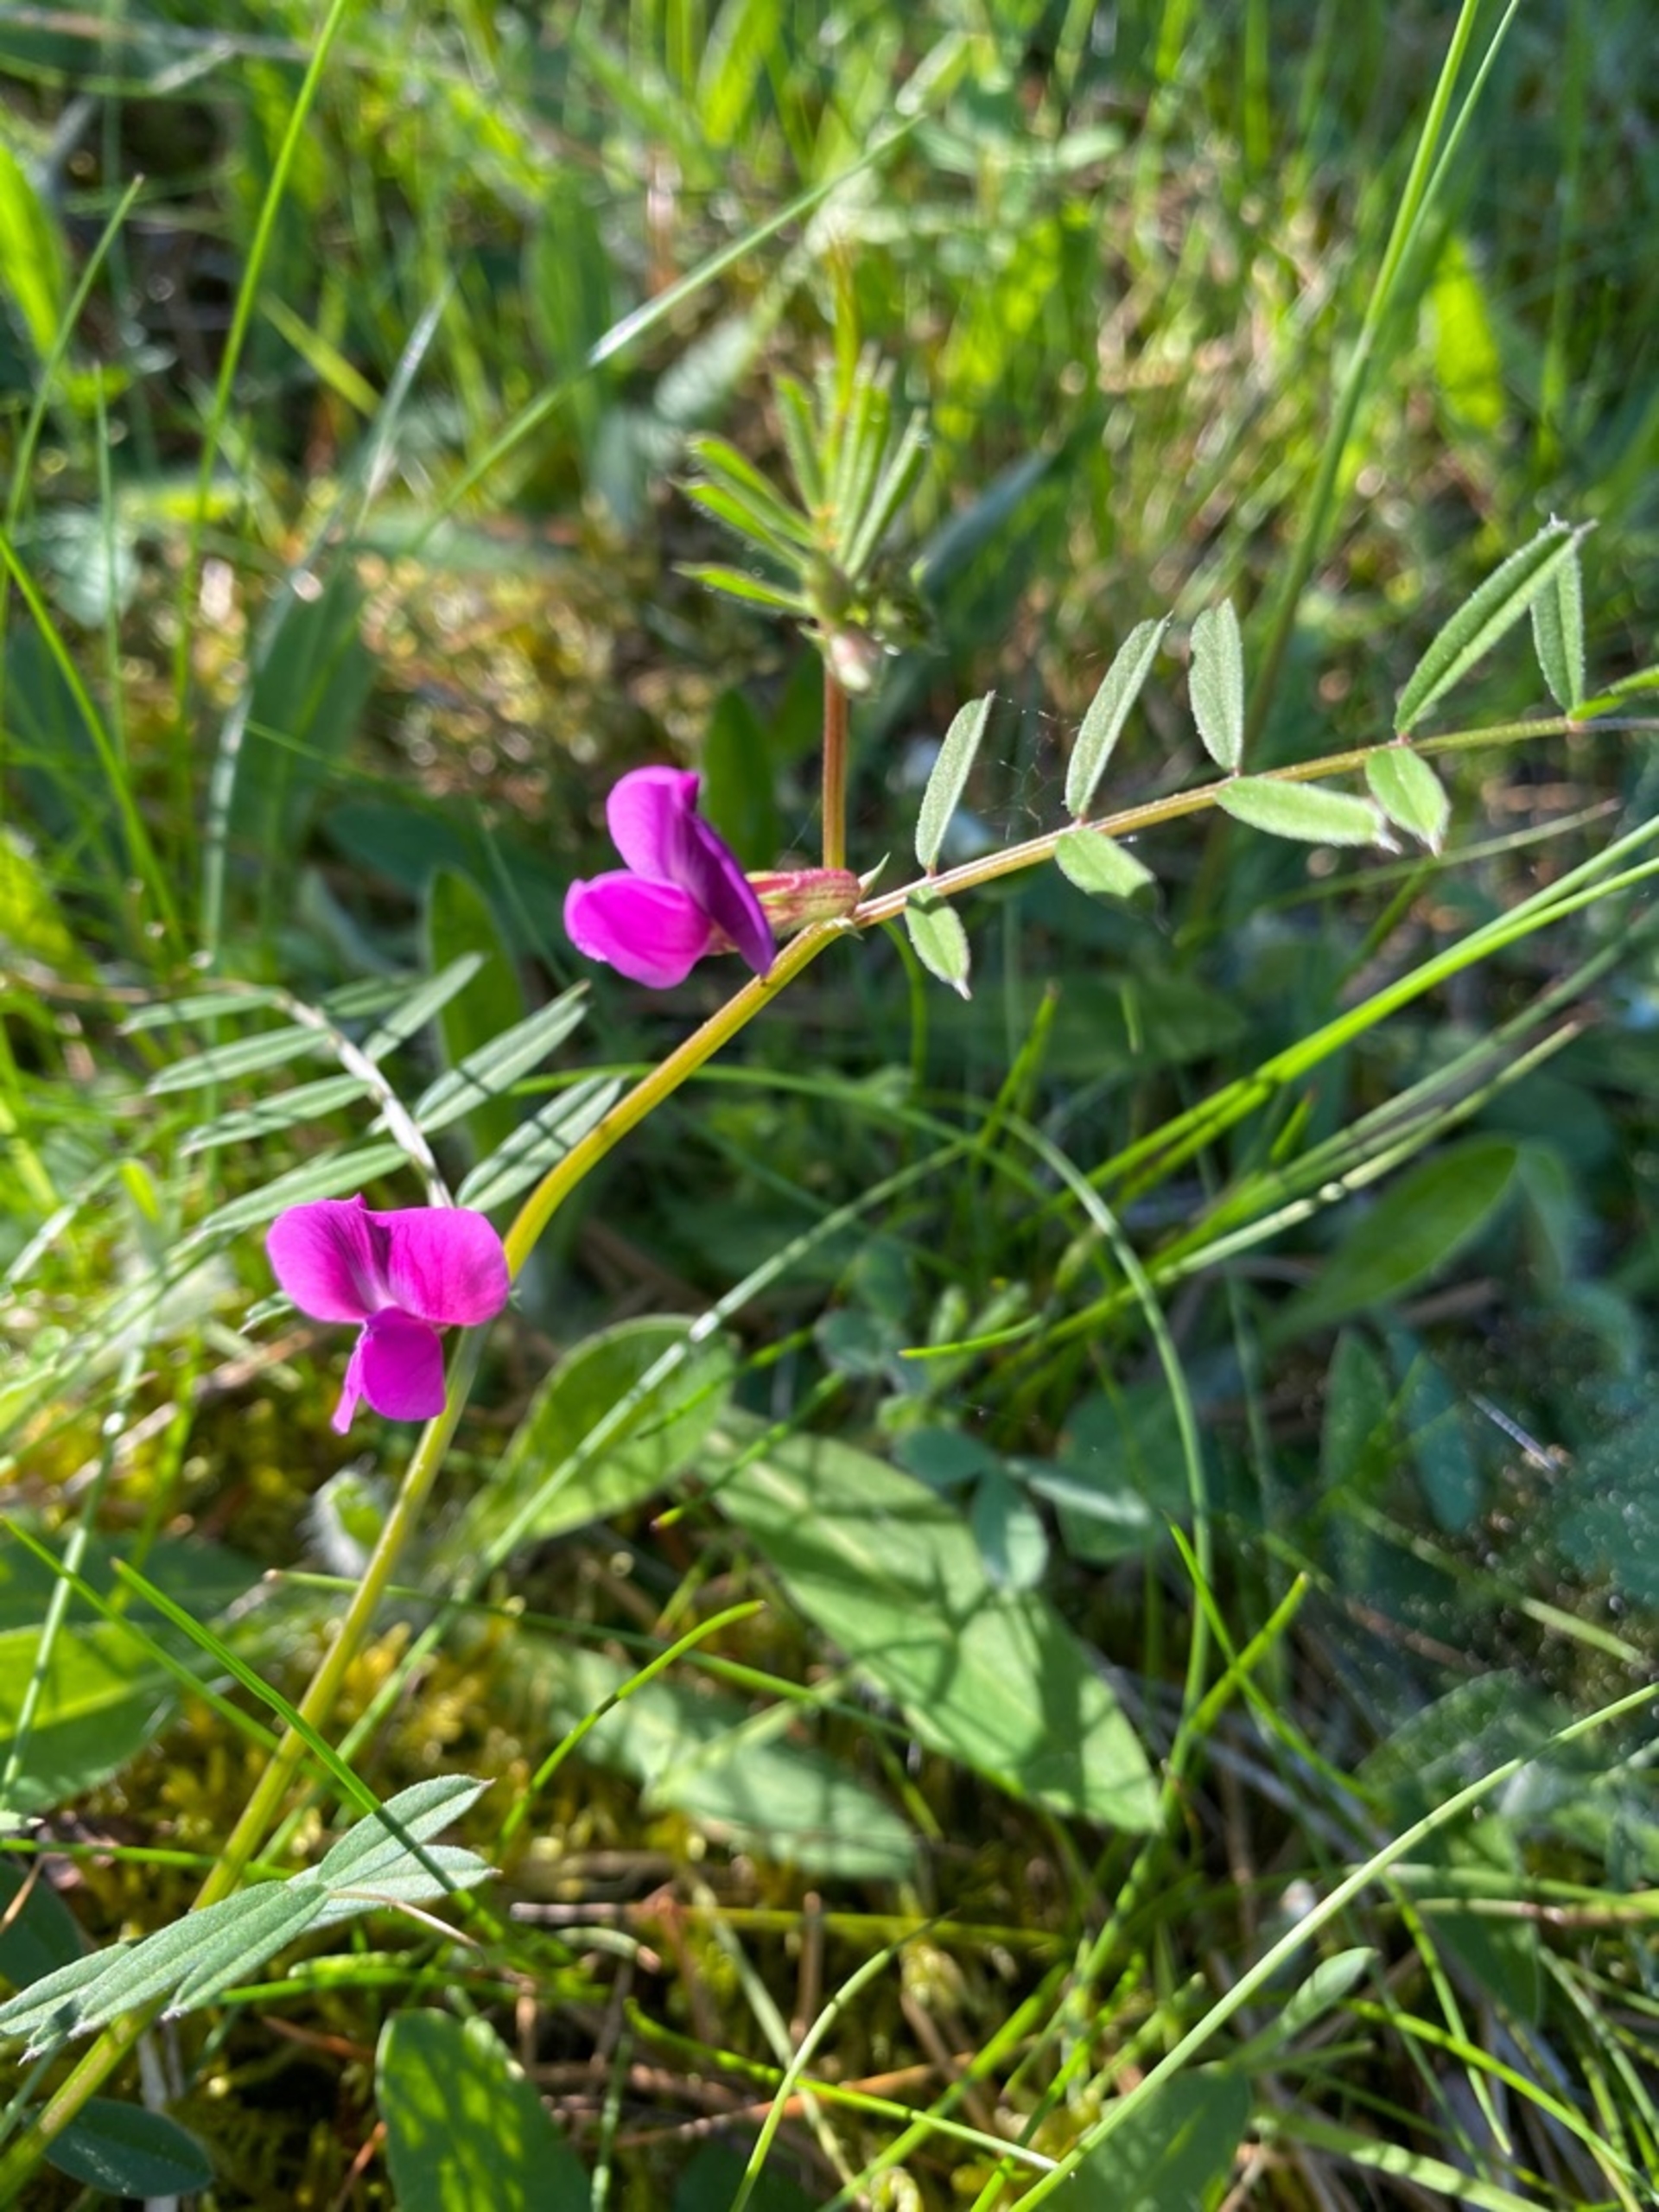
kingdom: Plantae
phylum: Tracheophyta
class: Magnoliopsida
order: Fabales
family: Fabaceae
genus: Vicia
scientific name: Vicia sativa
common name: Foder-vikke
